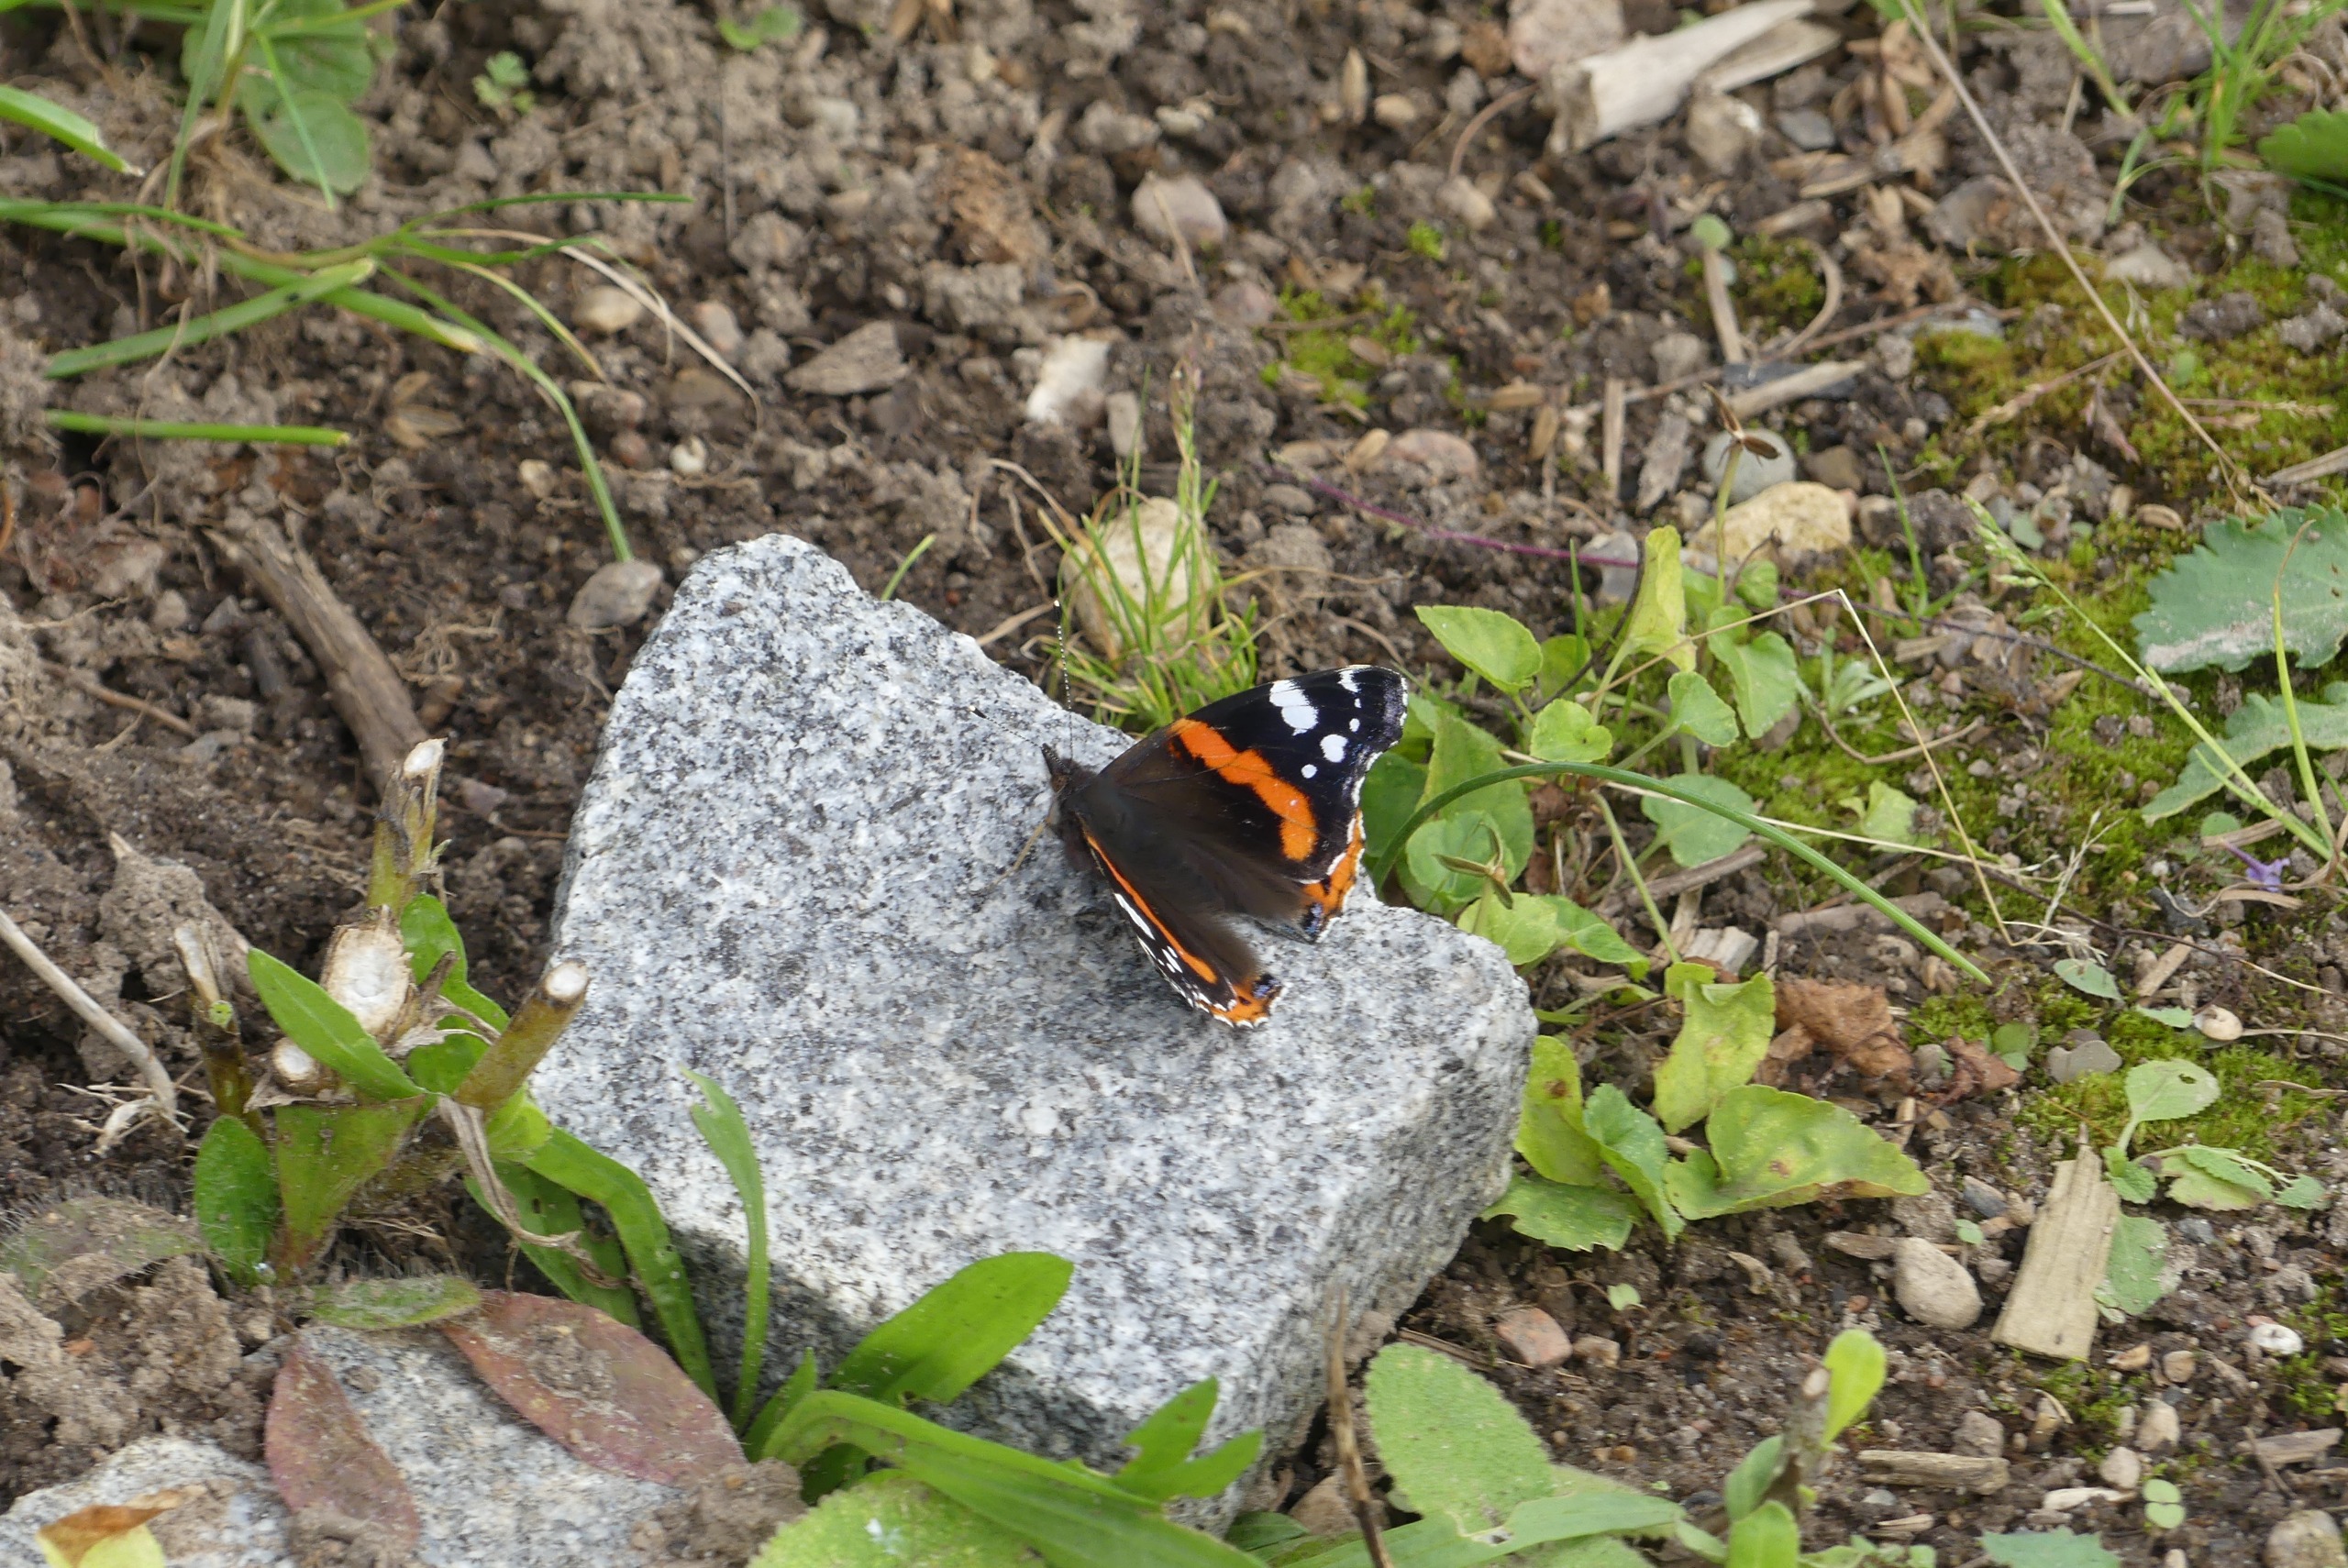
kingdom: Animalia
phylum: Arthropoda
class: Insecta
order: Lepidoptera
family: Nymphalidae
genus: Vanessa
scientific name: Vanessa atalanta
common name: Admiral
